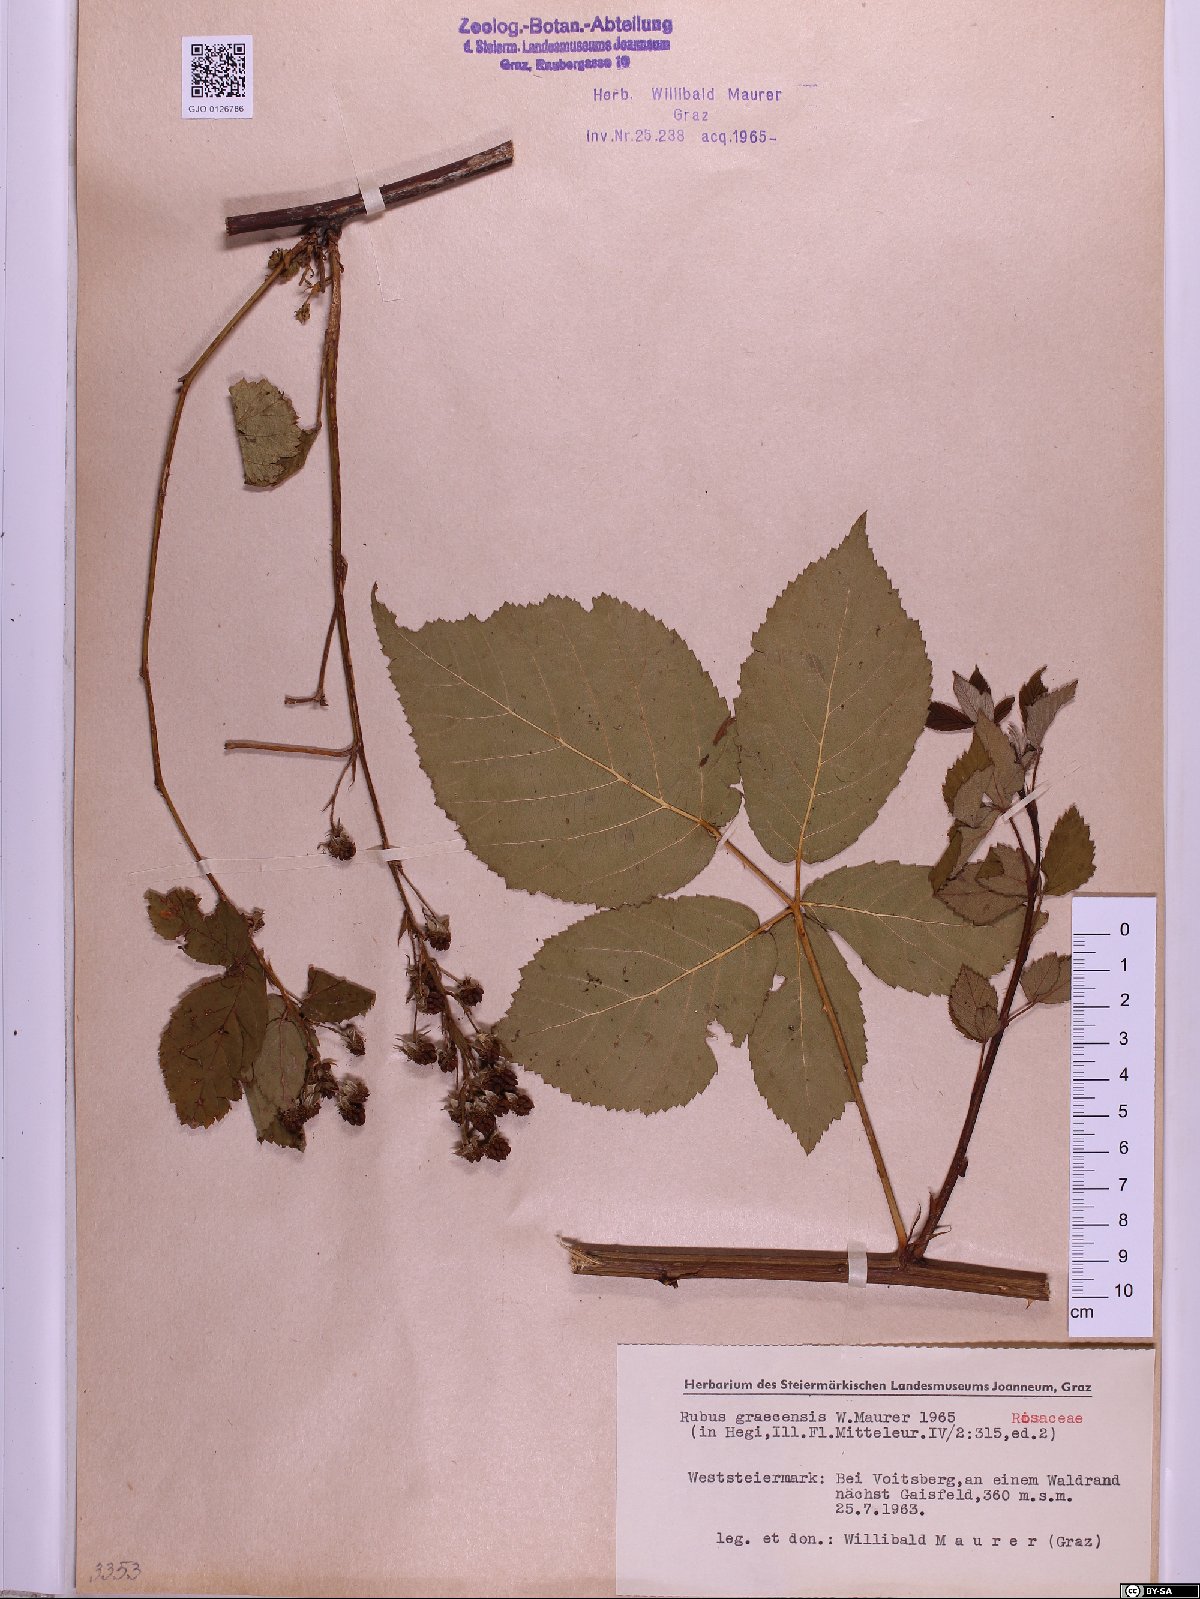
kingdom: Plantae
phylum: Tracheophyta
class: Magnoliopsida
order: Rosales
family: Rosaceae
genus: Rubus
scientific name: Rubus graecensis
